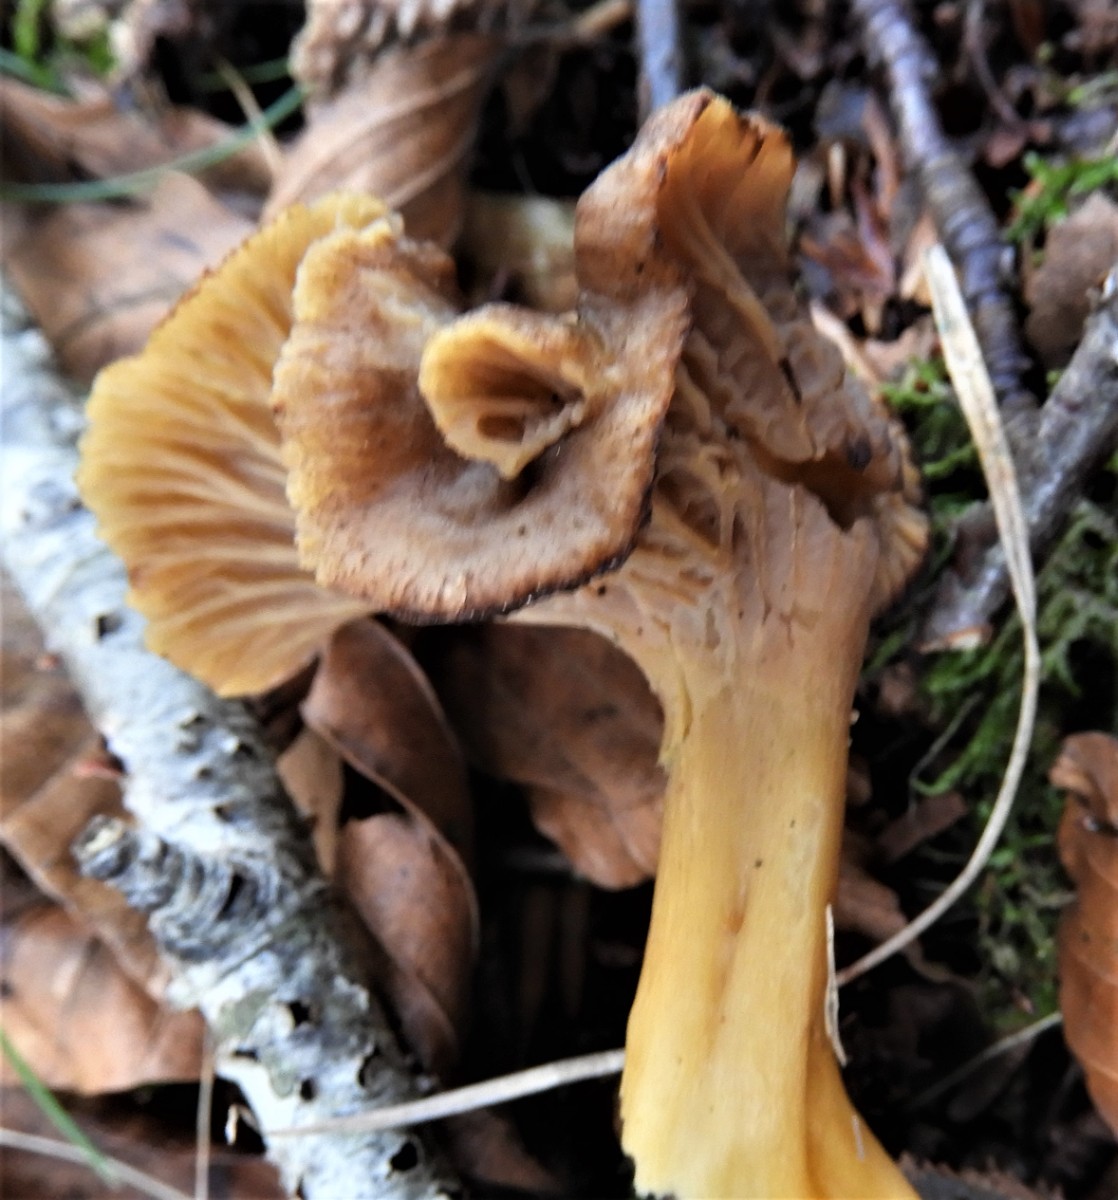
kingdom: Fungi
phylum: Basidiomycota
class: Agaricomycetes
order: Cantharellales
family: Hydnaceae
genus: Craterellus
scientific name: Craterellus tubaeformis
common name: tragt-kantarel
